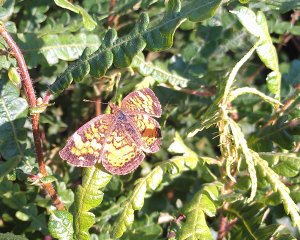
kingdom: Animalia
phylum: Arthropoda
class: Insecta
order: Lepidoptera
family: Nymphalidae
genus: Phyciodes
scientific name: Phyciodes tharos
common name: Northern Crescent
